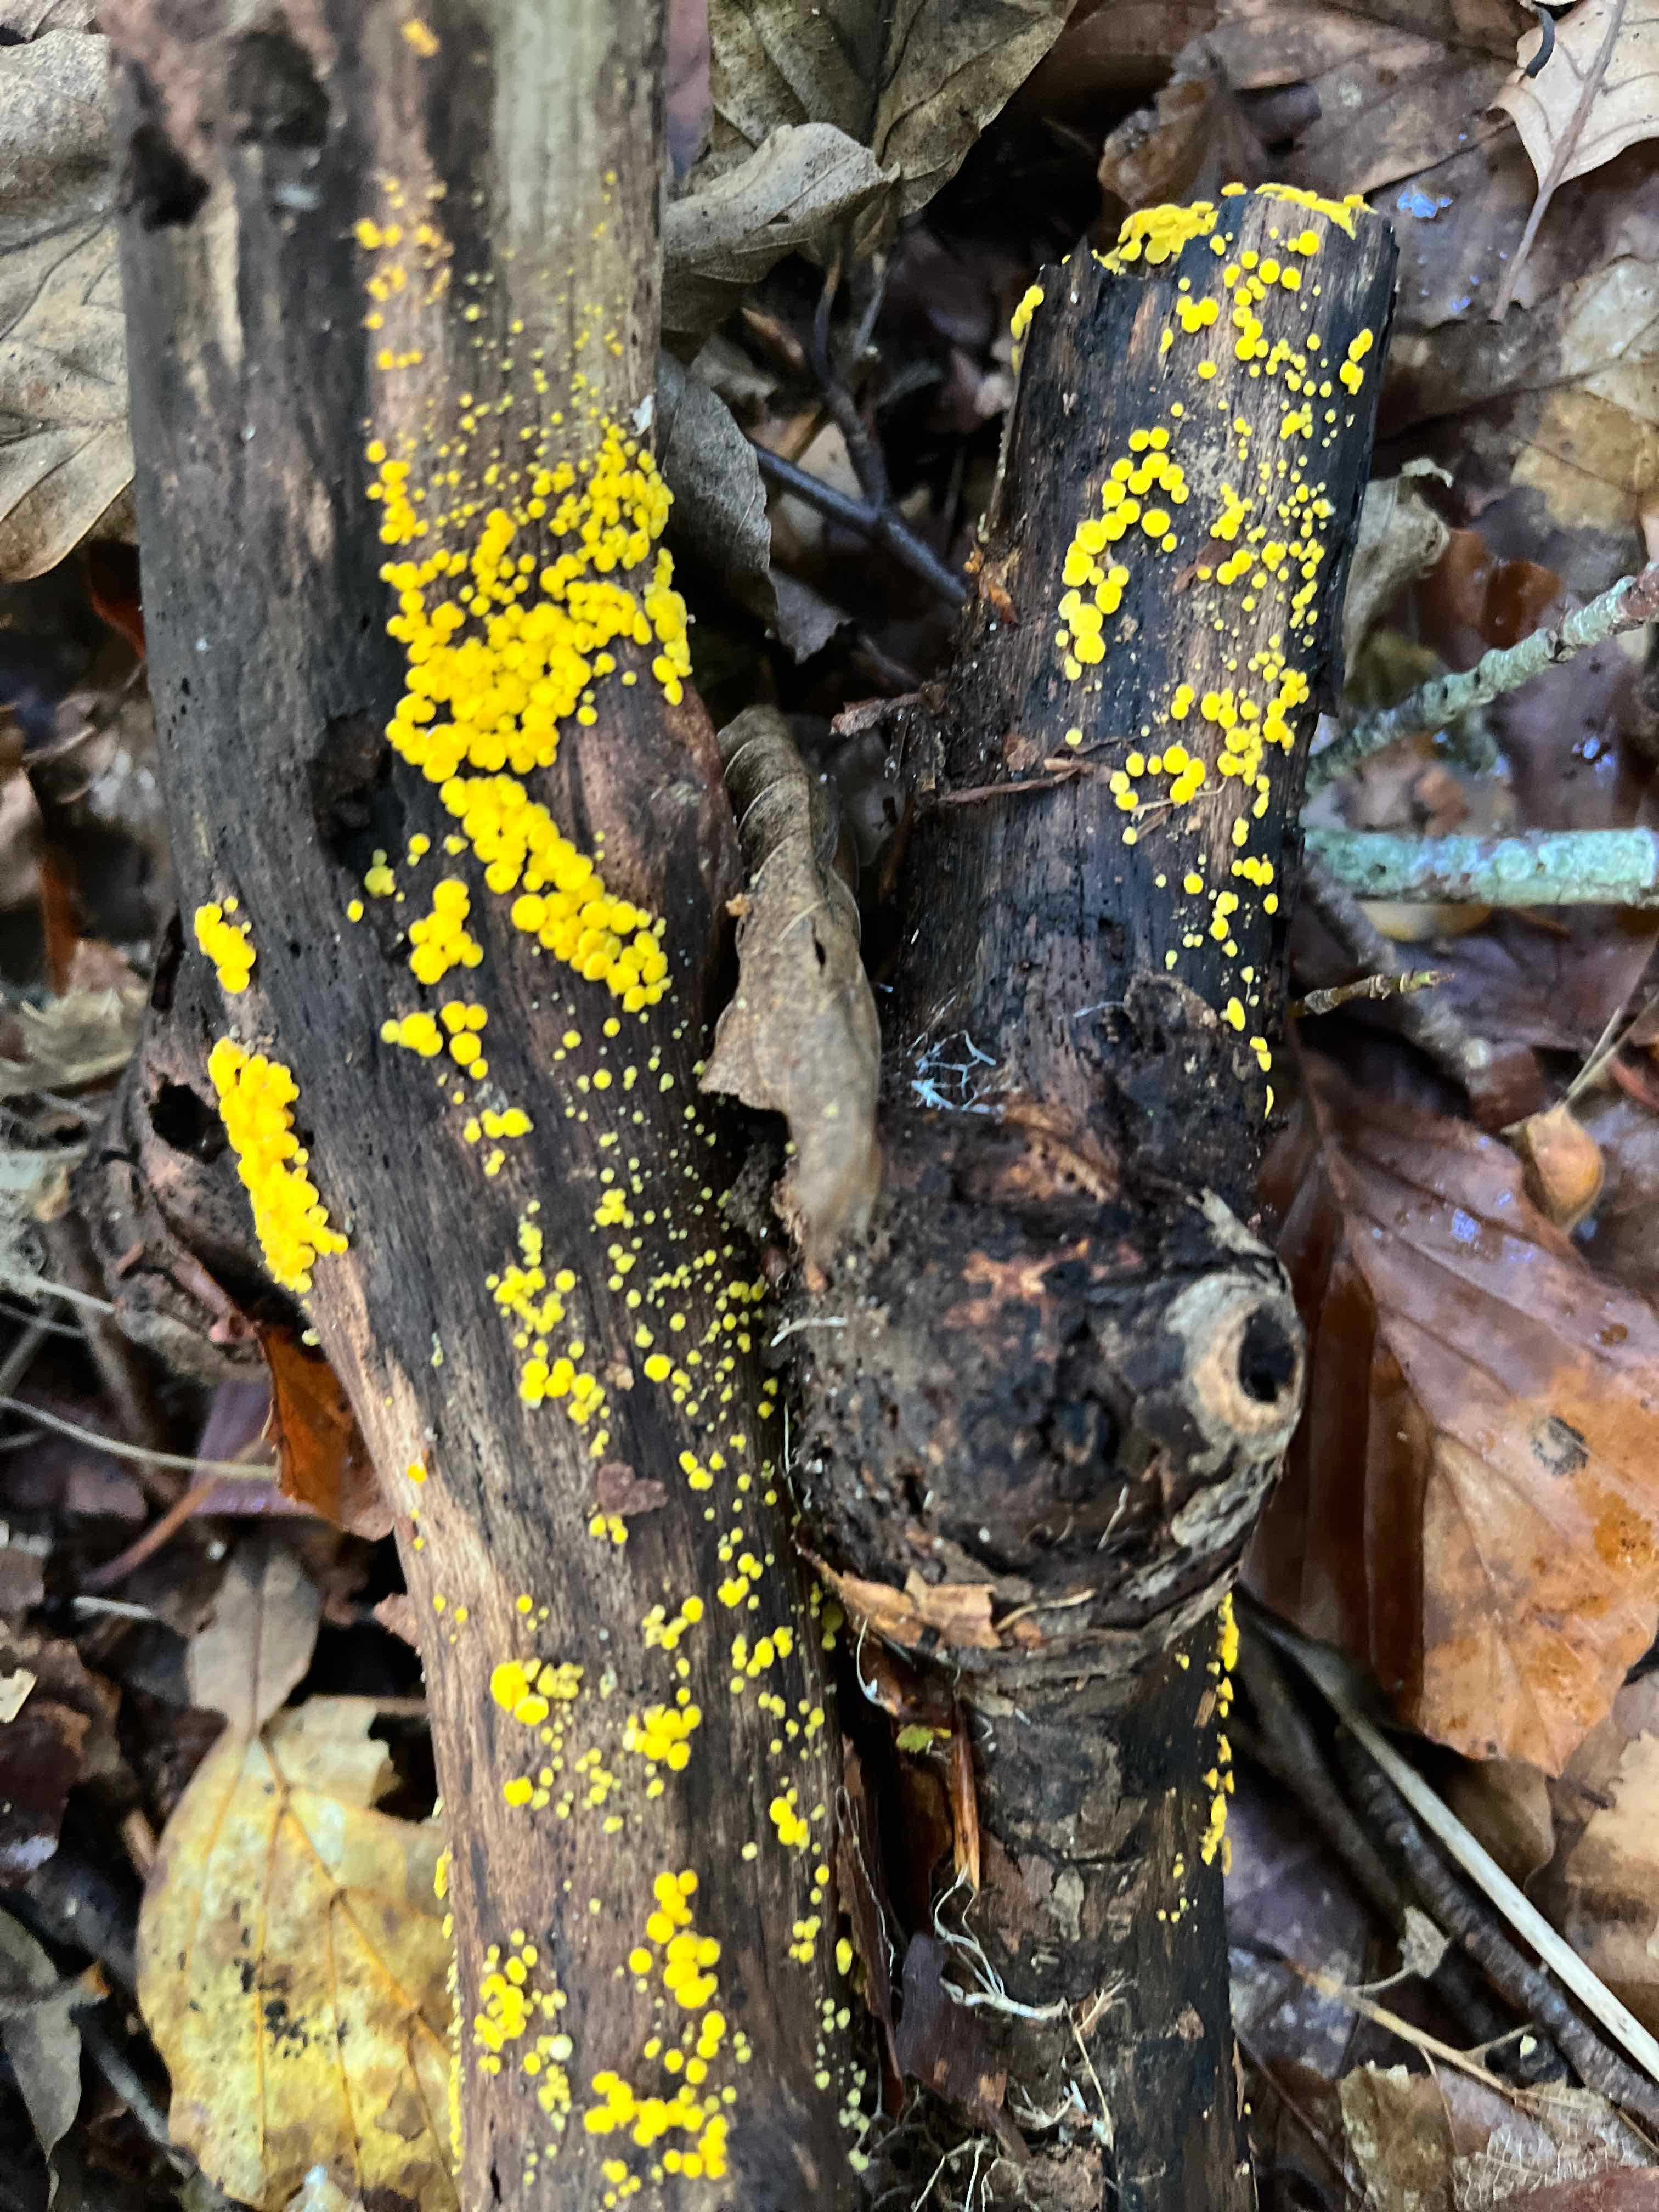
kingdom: Fungi
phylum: Ascomycota
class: Leotiomycetes
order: Helotiales
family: Pezizellaceae
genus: Calycina
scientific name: Calycina citrina
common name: almindelig gulskive
